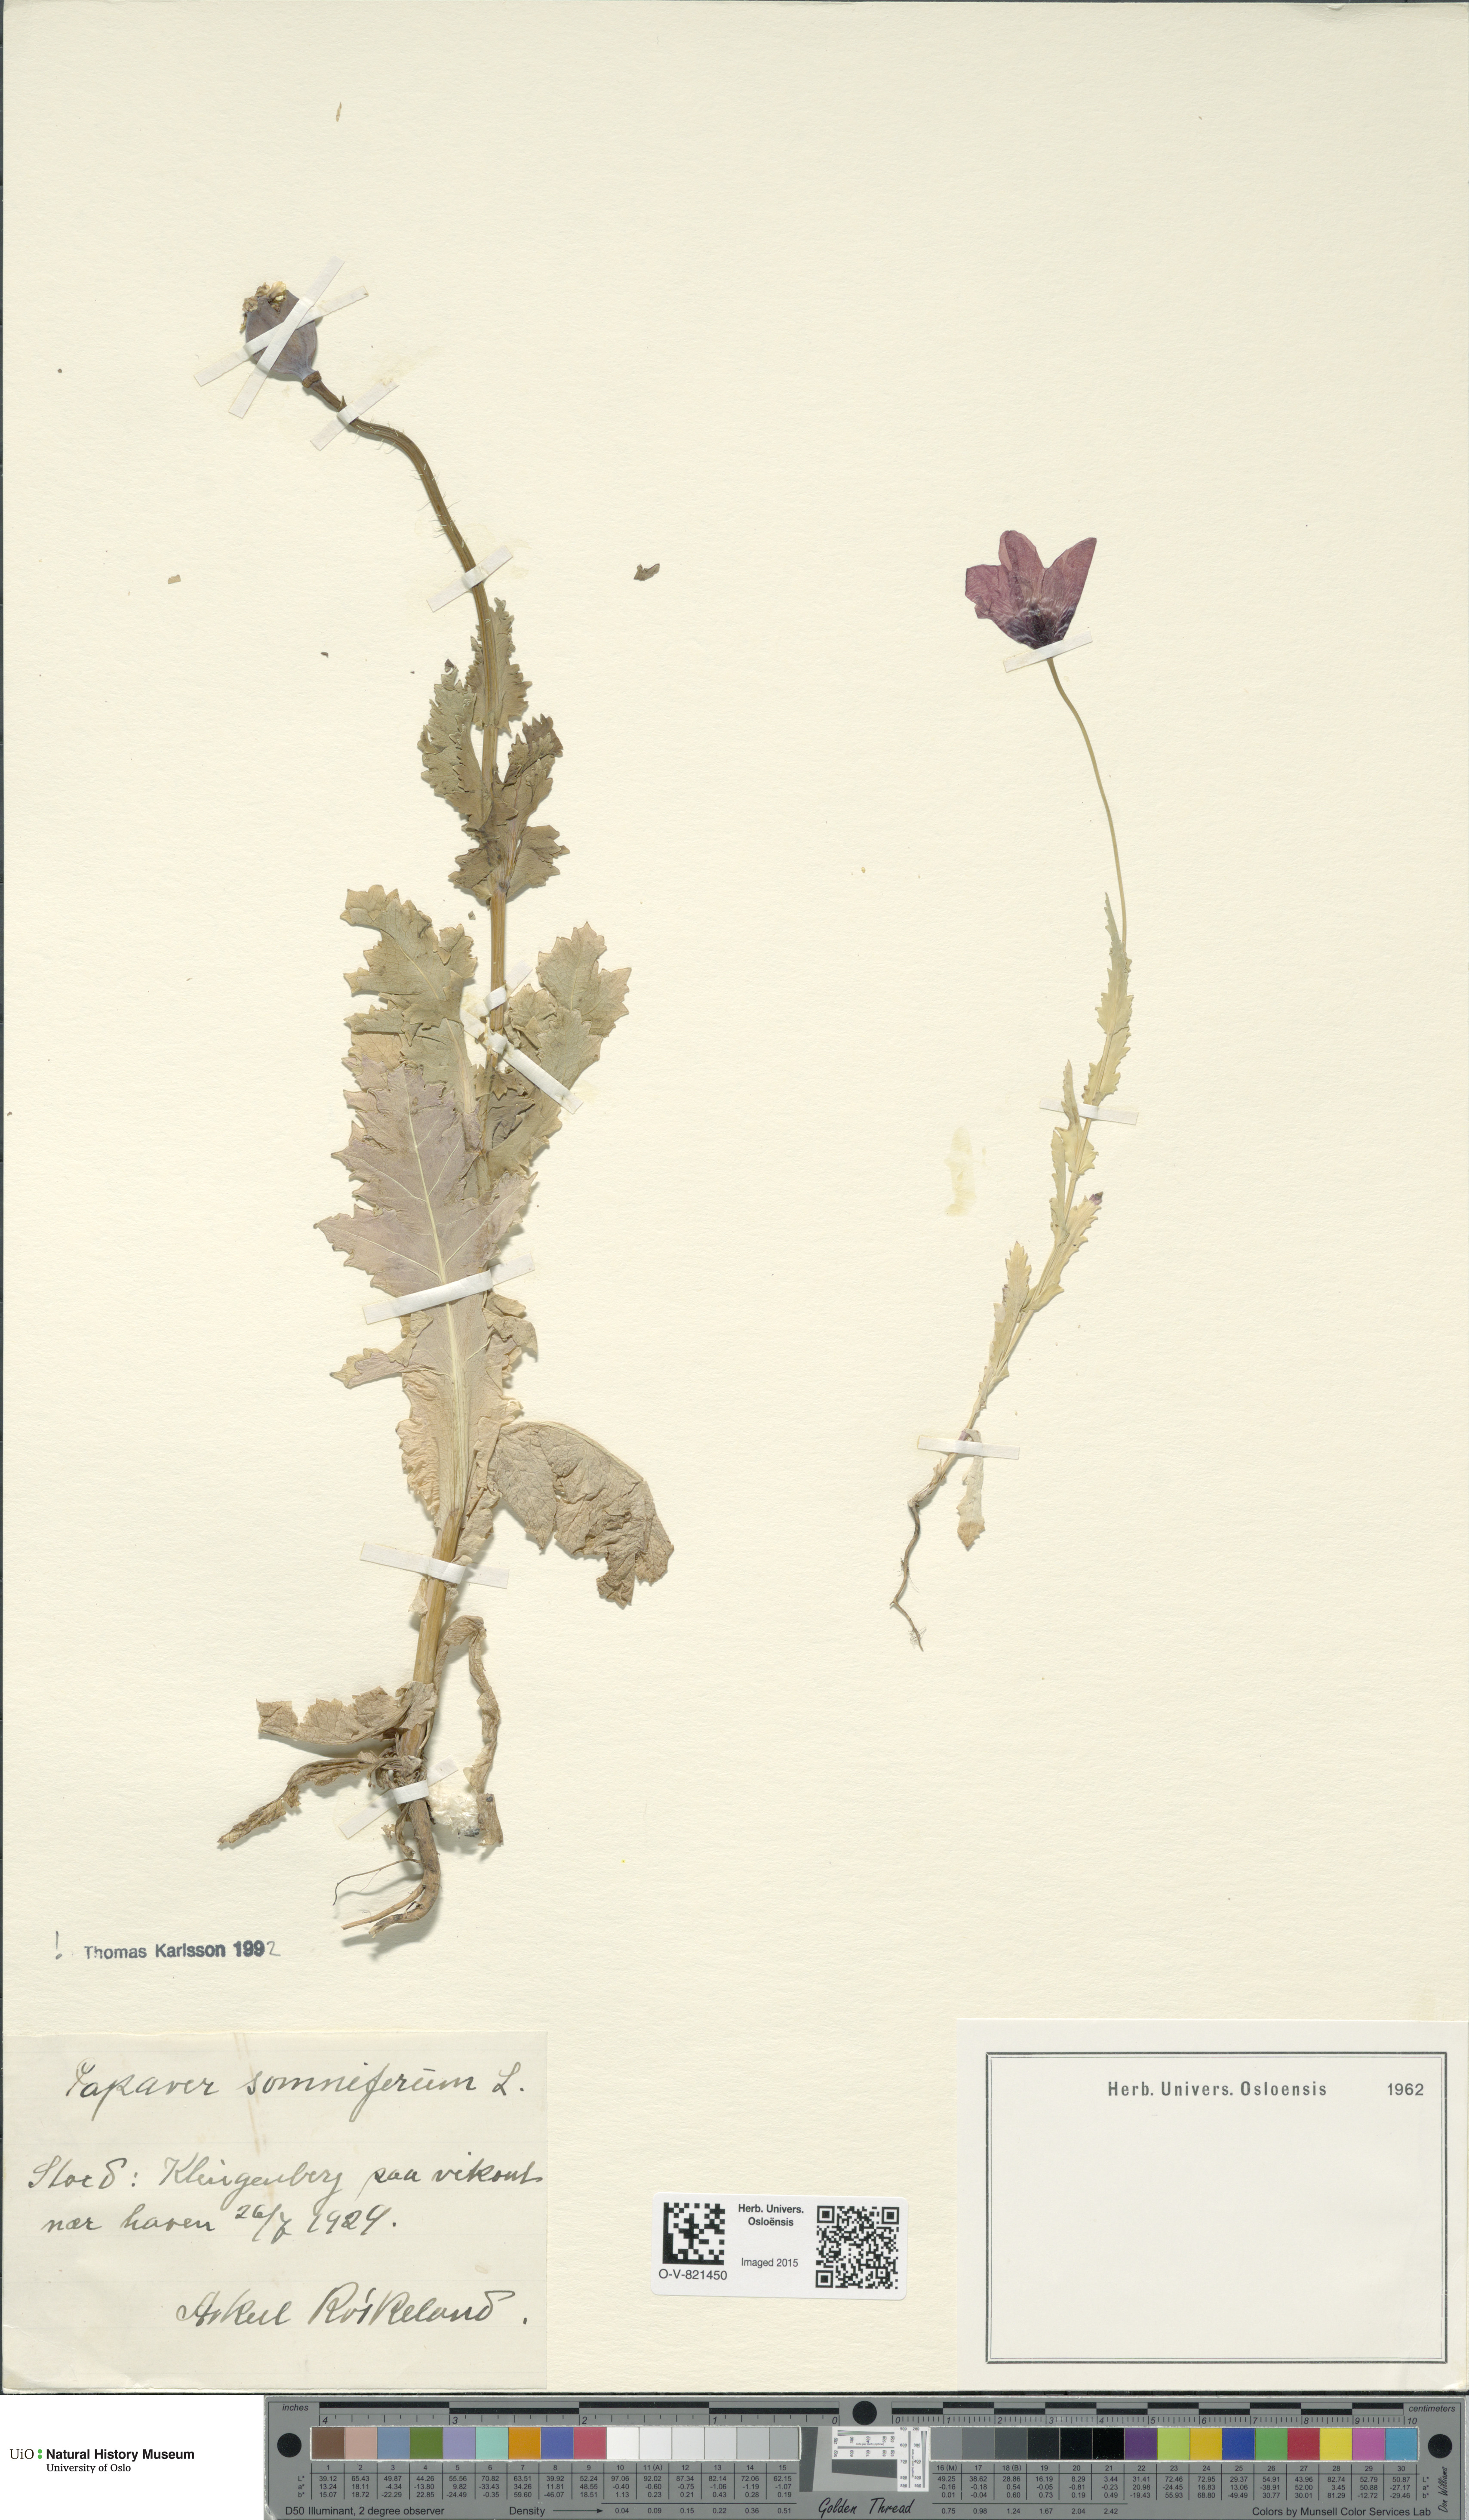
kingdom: Plantae
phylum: Tracheophyta
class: Magnoliopsida
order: Ranunculales
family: Papaveraceae
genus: Papaver
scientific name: Papaver somniferum
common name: Opium poppy
